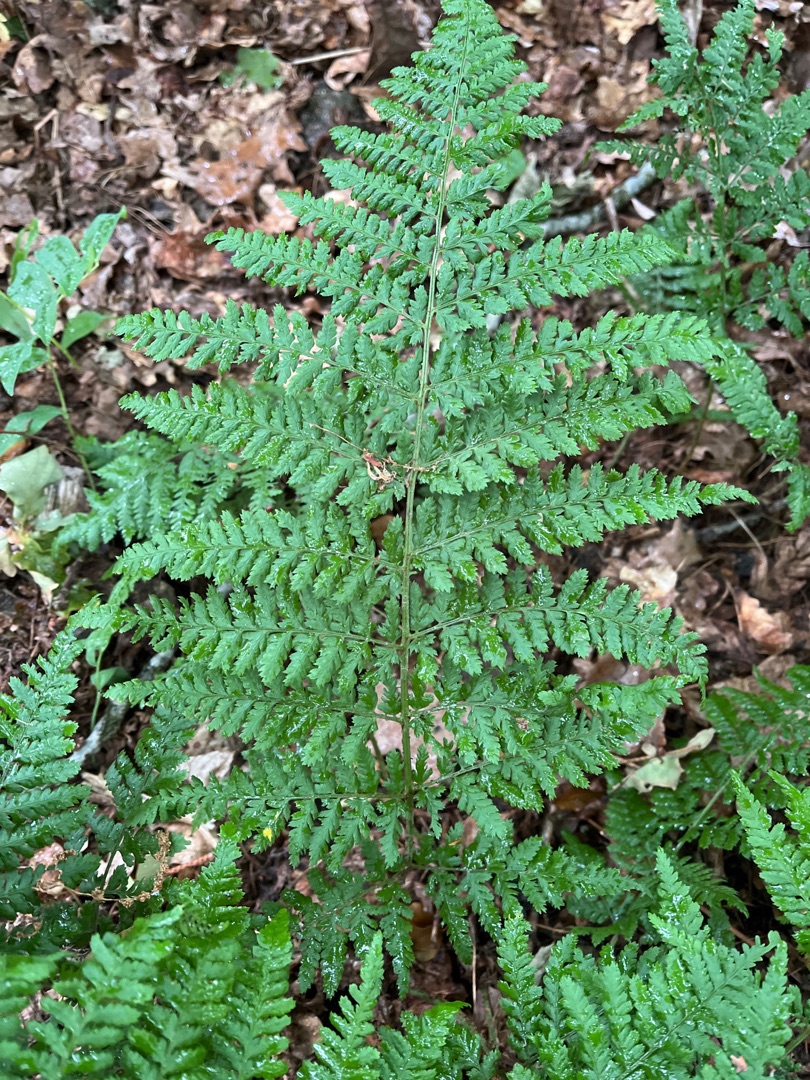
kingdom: Plantae
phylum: Tracheophyta
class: Polypodiopsida
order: Polypodiales
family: Dryopteridaceae
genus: Dryopteris
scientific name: Dryopteris dilatata
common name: Bredbladet mangeløv
